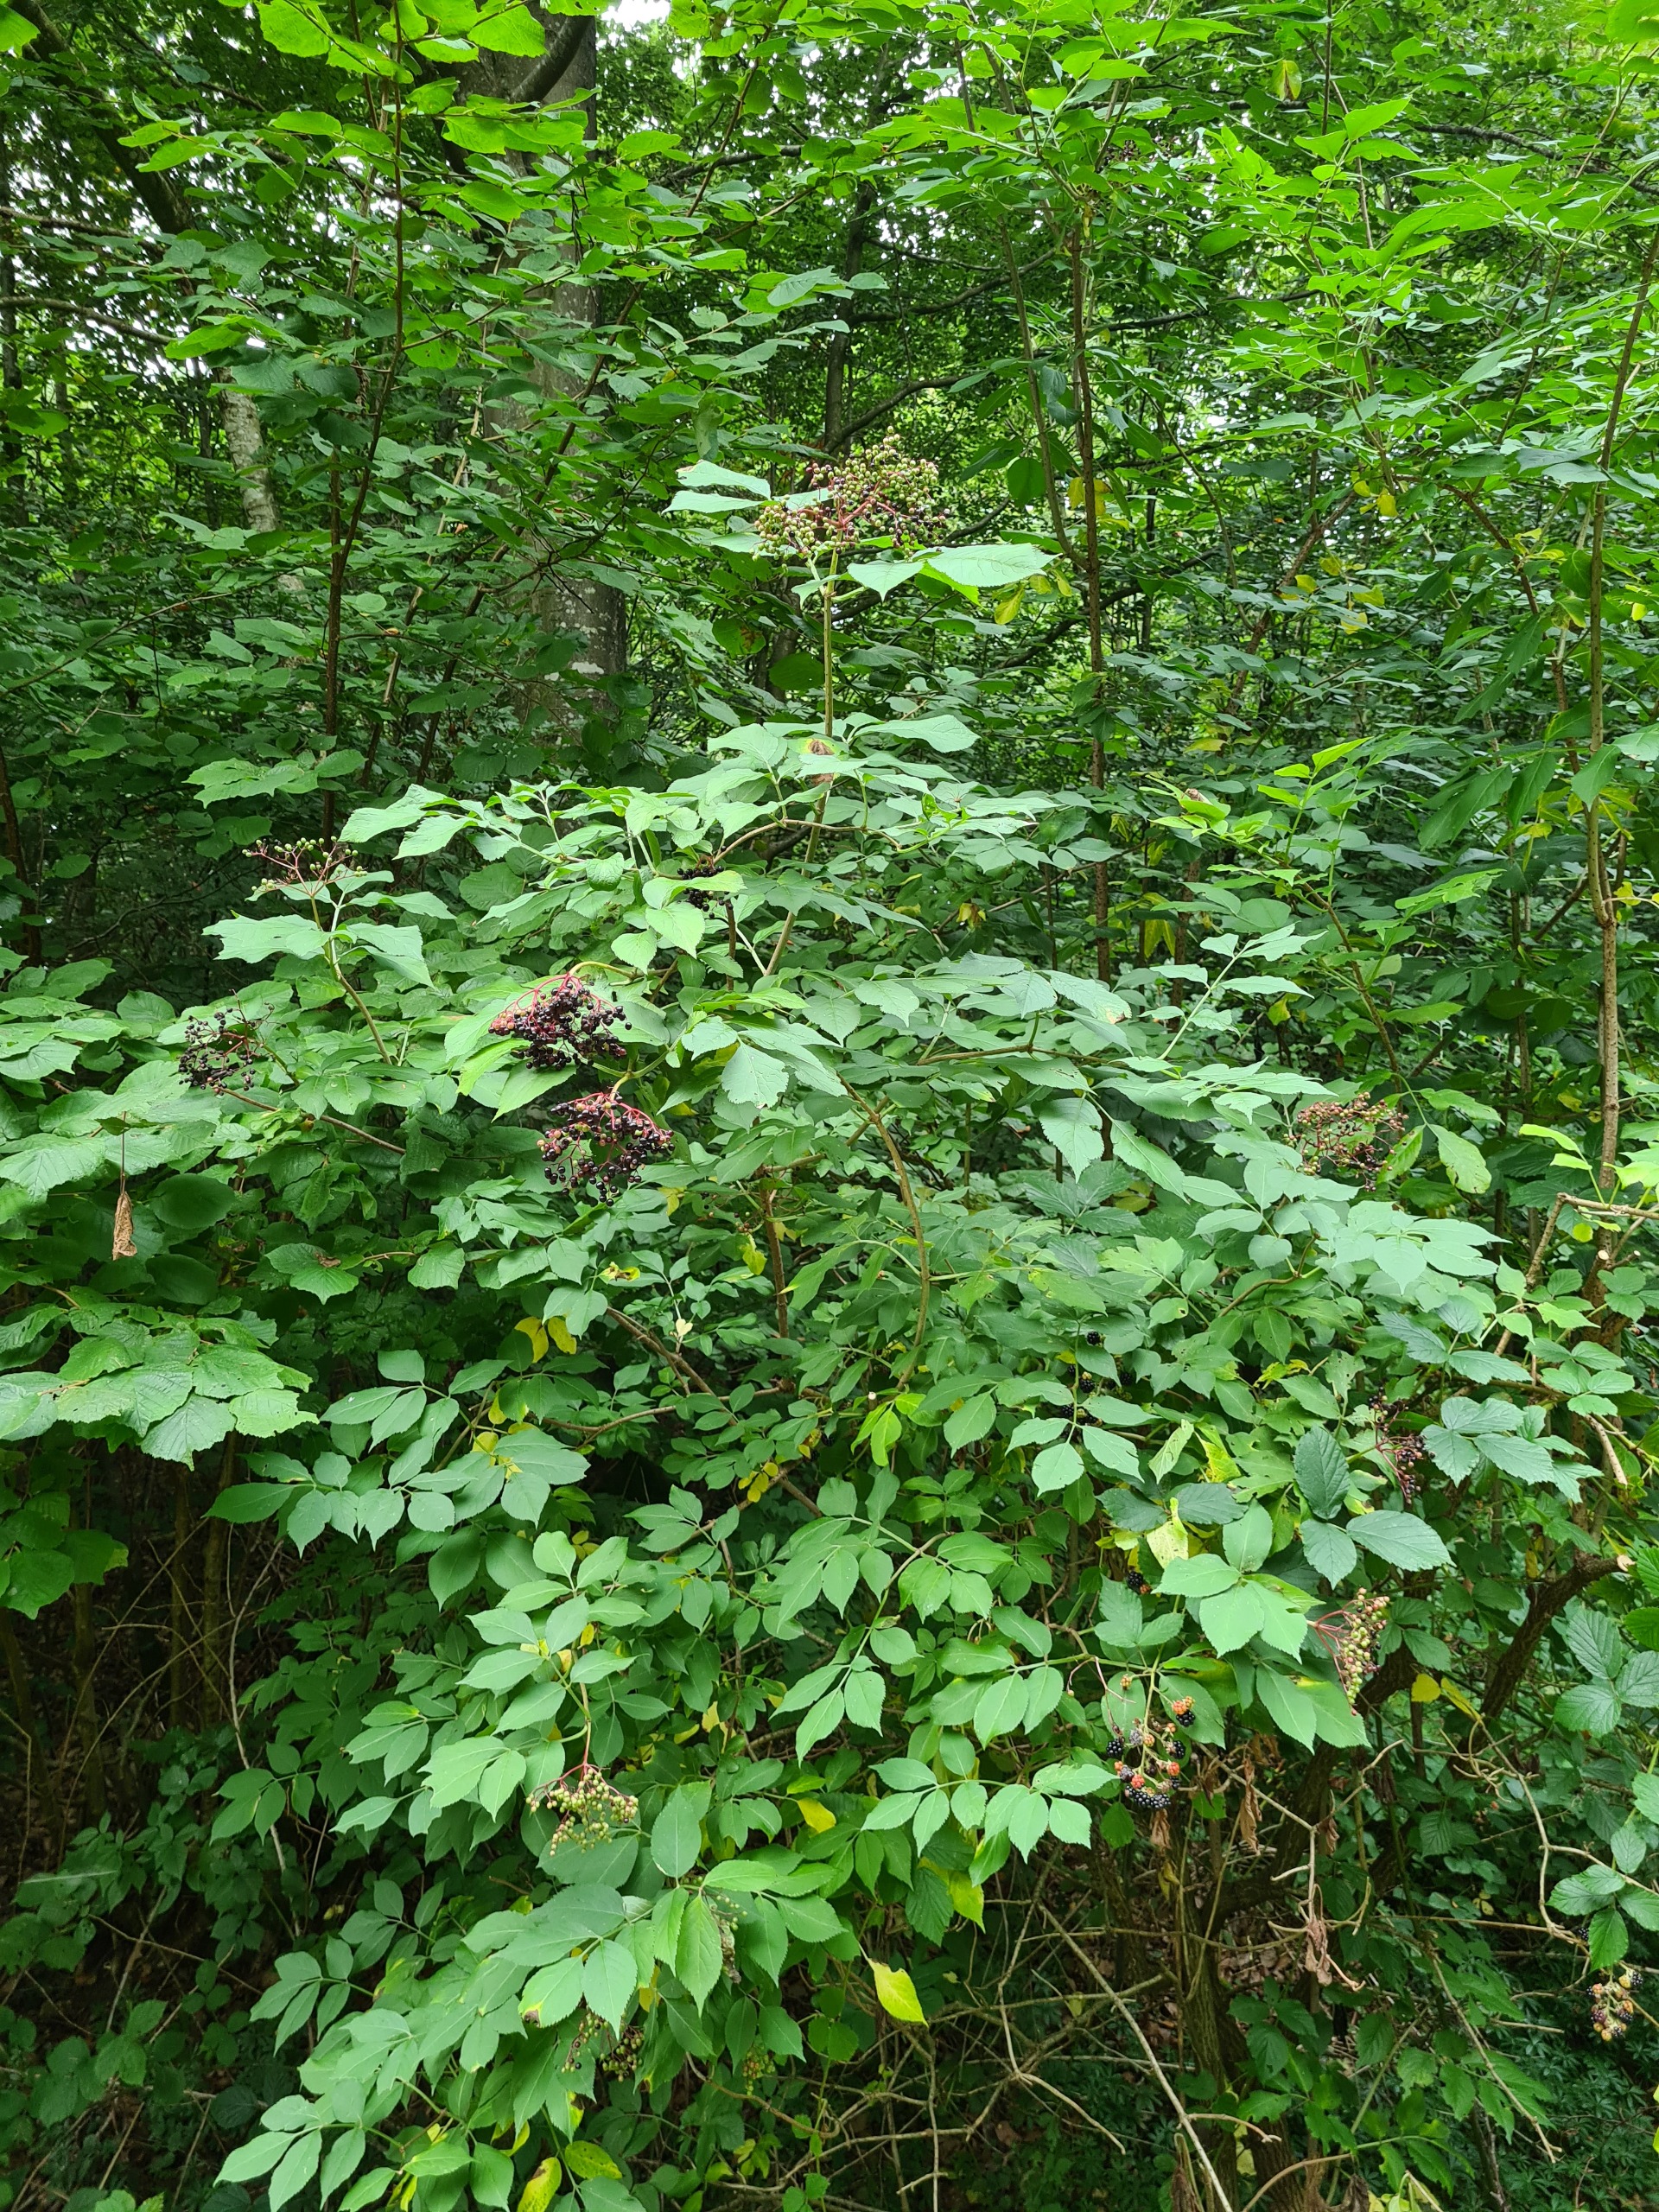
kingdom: Plantae
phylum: Tracheophyta
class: Magnoliopsida
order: Dipsacales
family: Viburnaceae
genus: Sambucus
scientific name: Sambucus nigra
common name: Almindelig hyld
